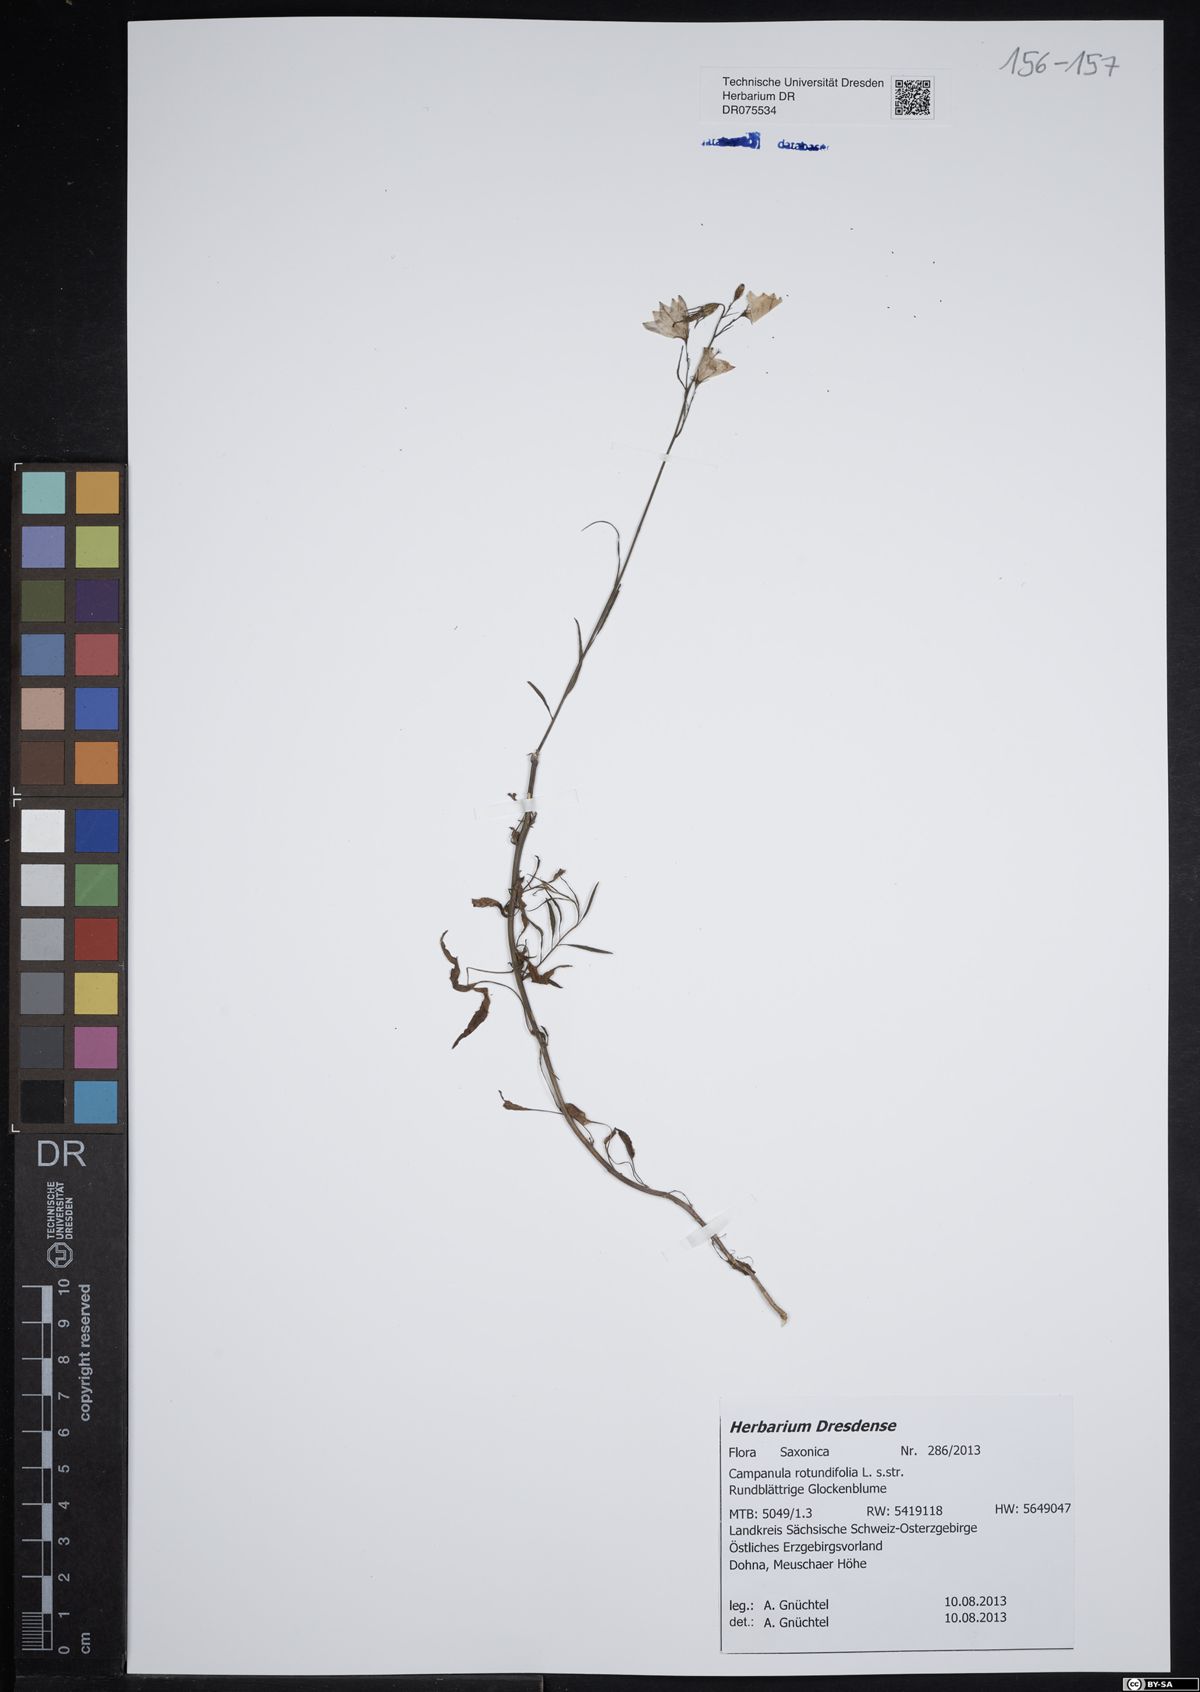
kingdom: Plantae
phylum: Tracheophyta
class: Magnoliopsida
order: Asterales
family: Campanulaceae
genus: Campanula
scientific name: Campanula rotundifolia
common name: Harebell
